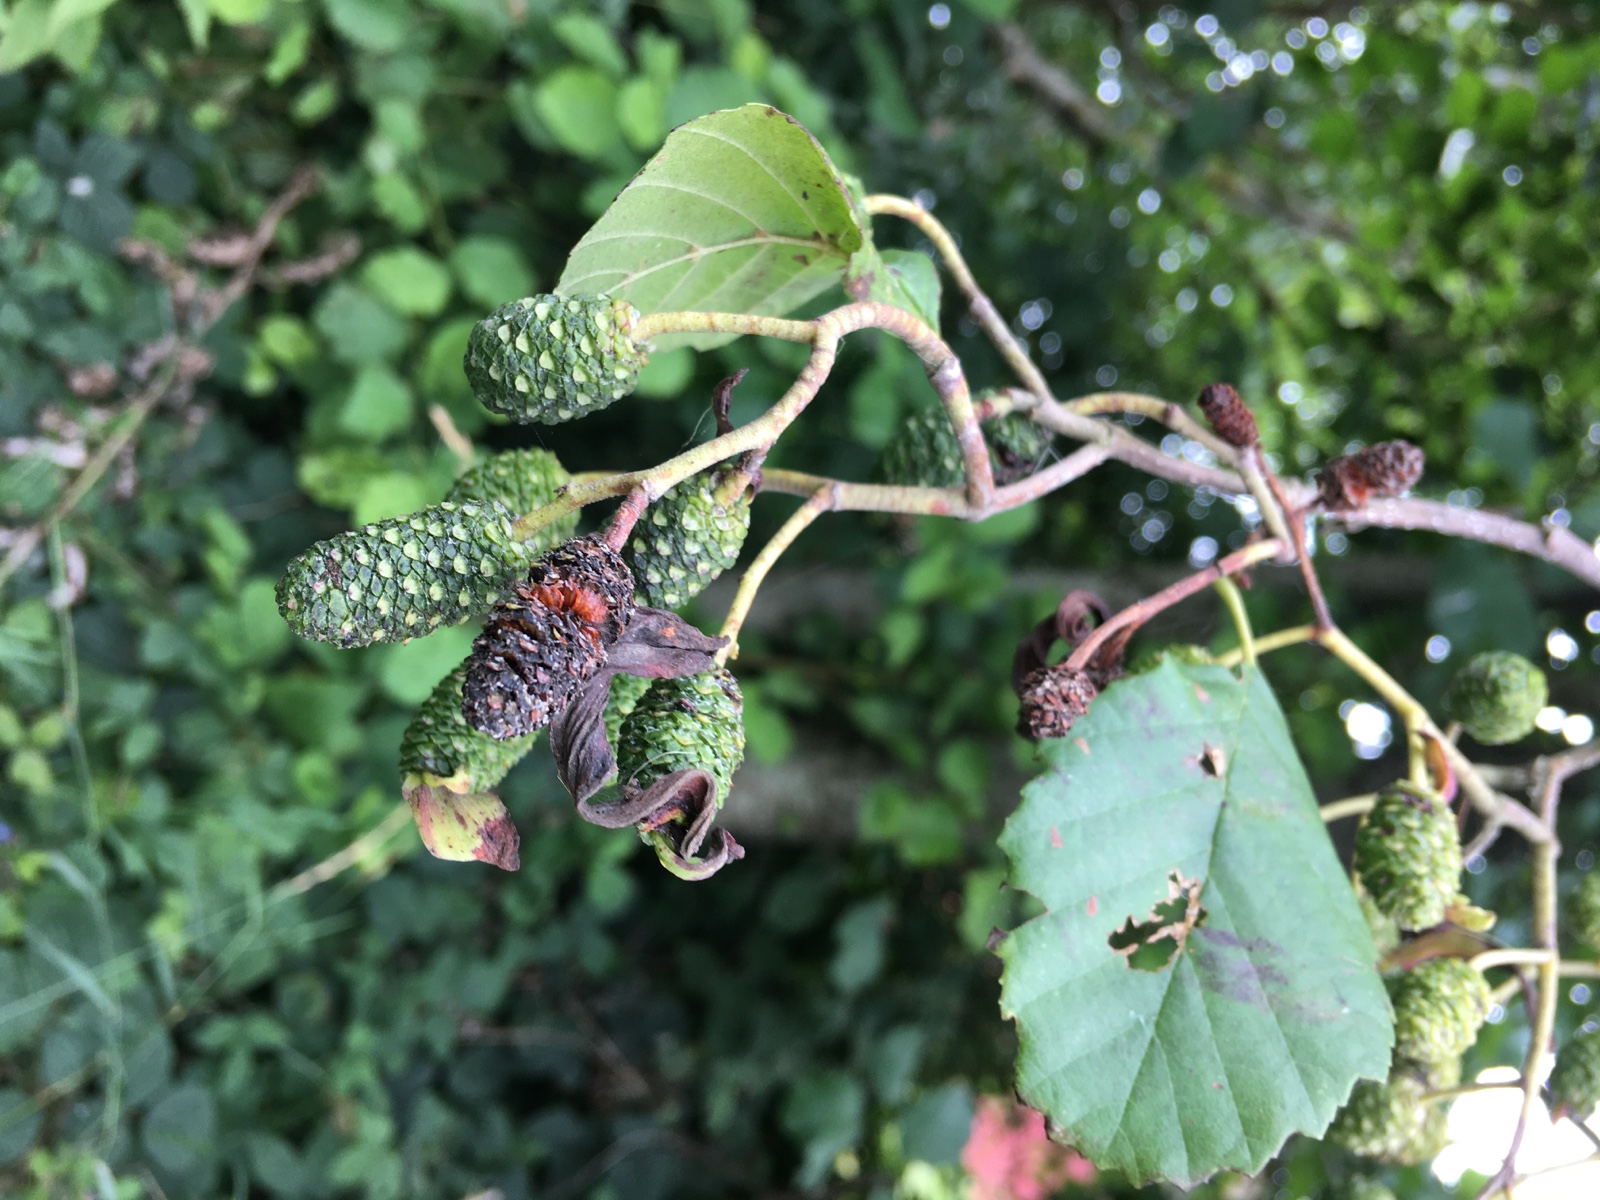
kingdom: Fungi
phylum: Ascomycota
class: Taphrinomycetes
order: Taphrinales
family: Taphrinaceae
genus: Taphrina
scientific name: Taphrina alni
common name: Alder tongue
